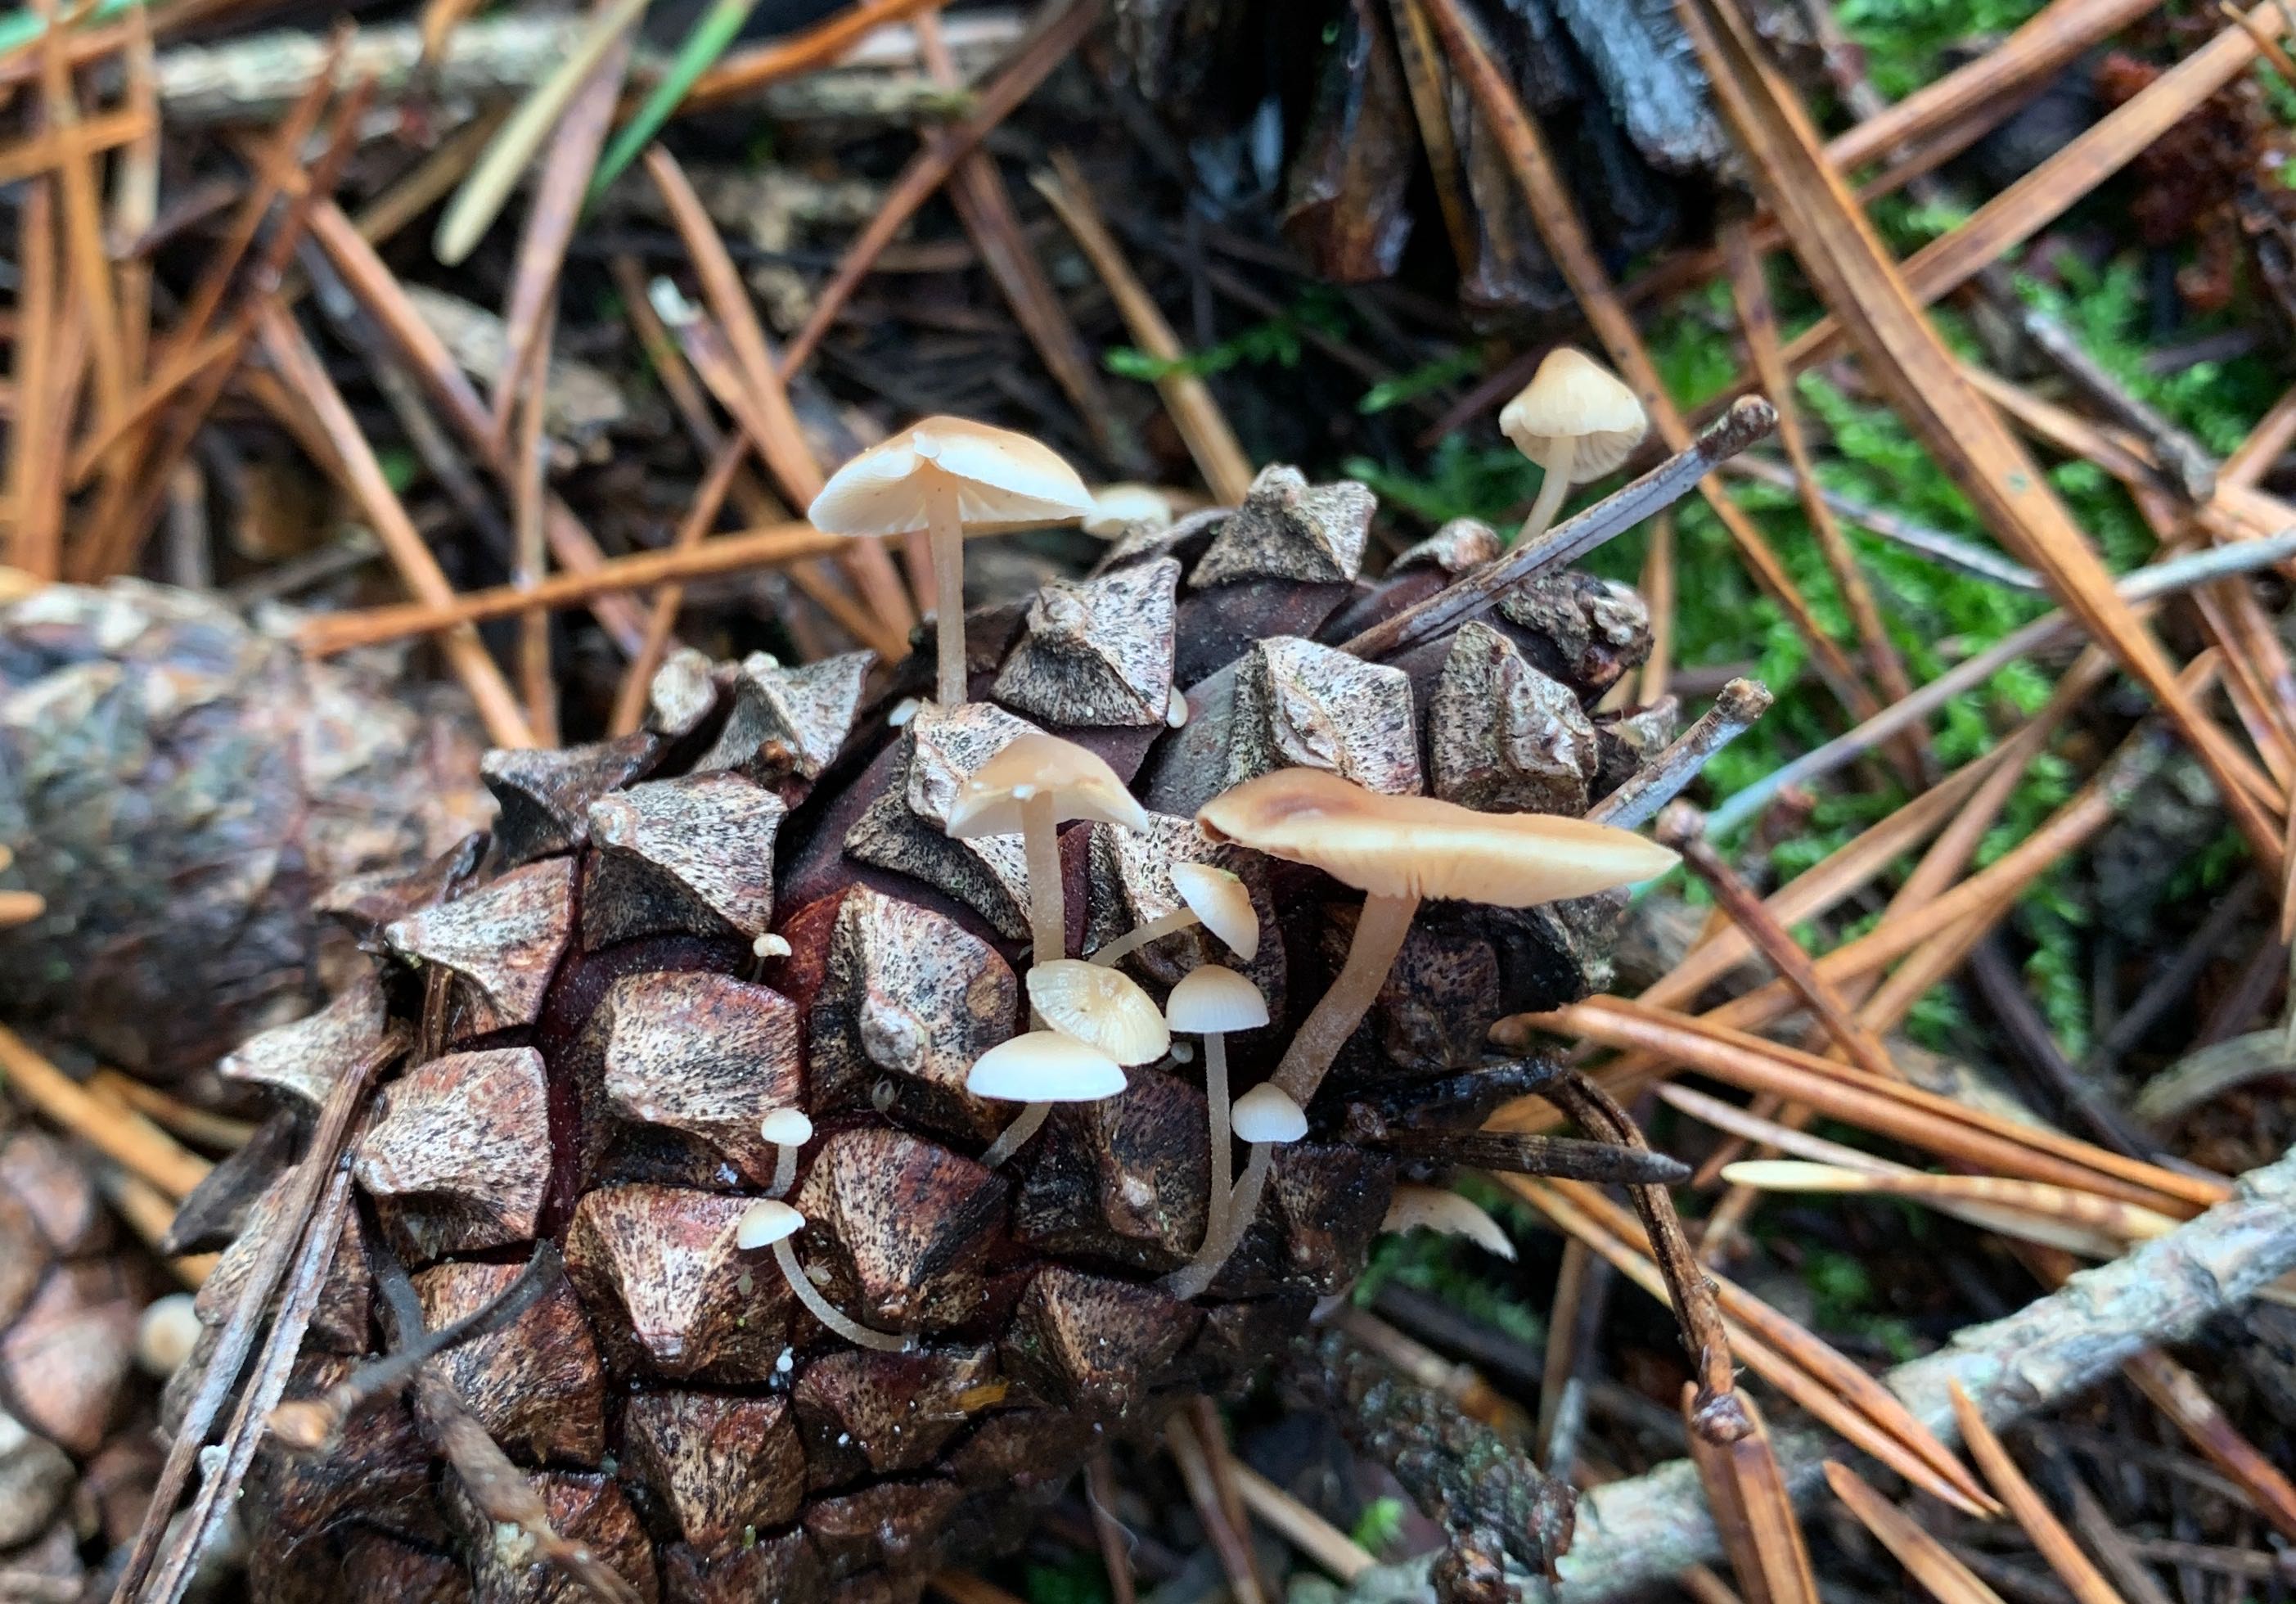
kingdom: Fungi
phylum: Basidiomycota
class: Agaricomycetes
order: Agaricales
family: Marasmiaceae
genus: Baeospora
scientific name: Baeospora myosura
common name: koglebruskhat
